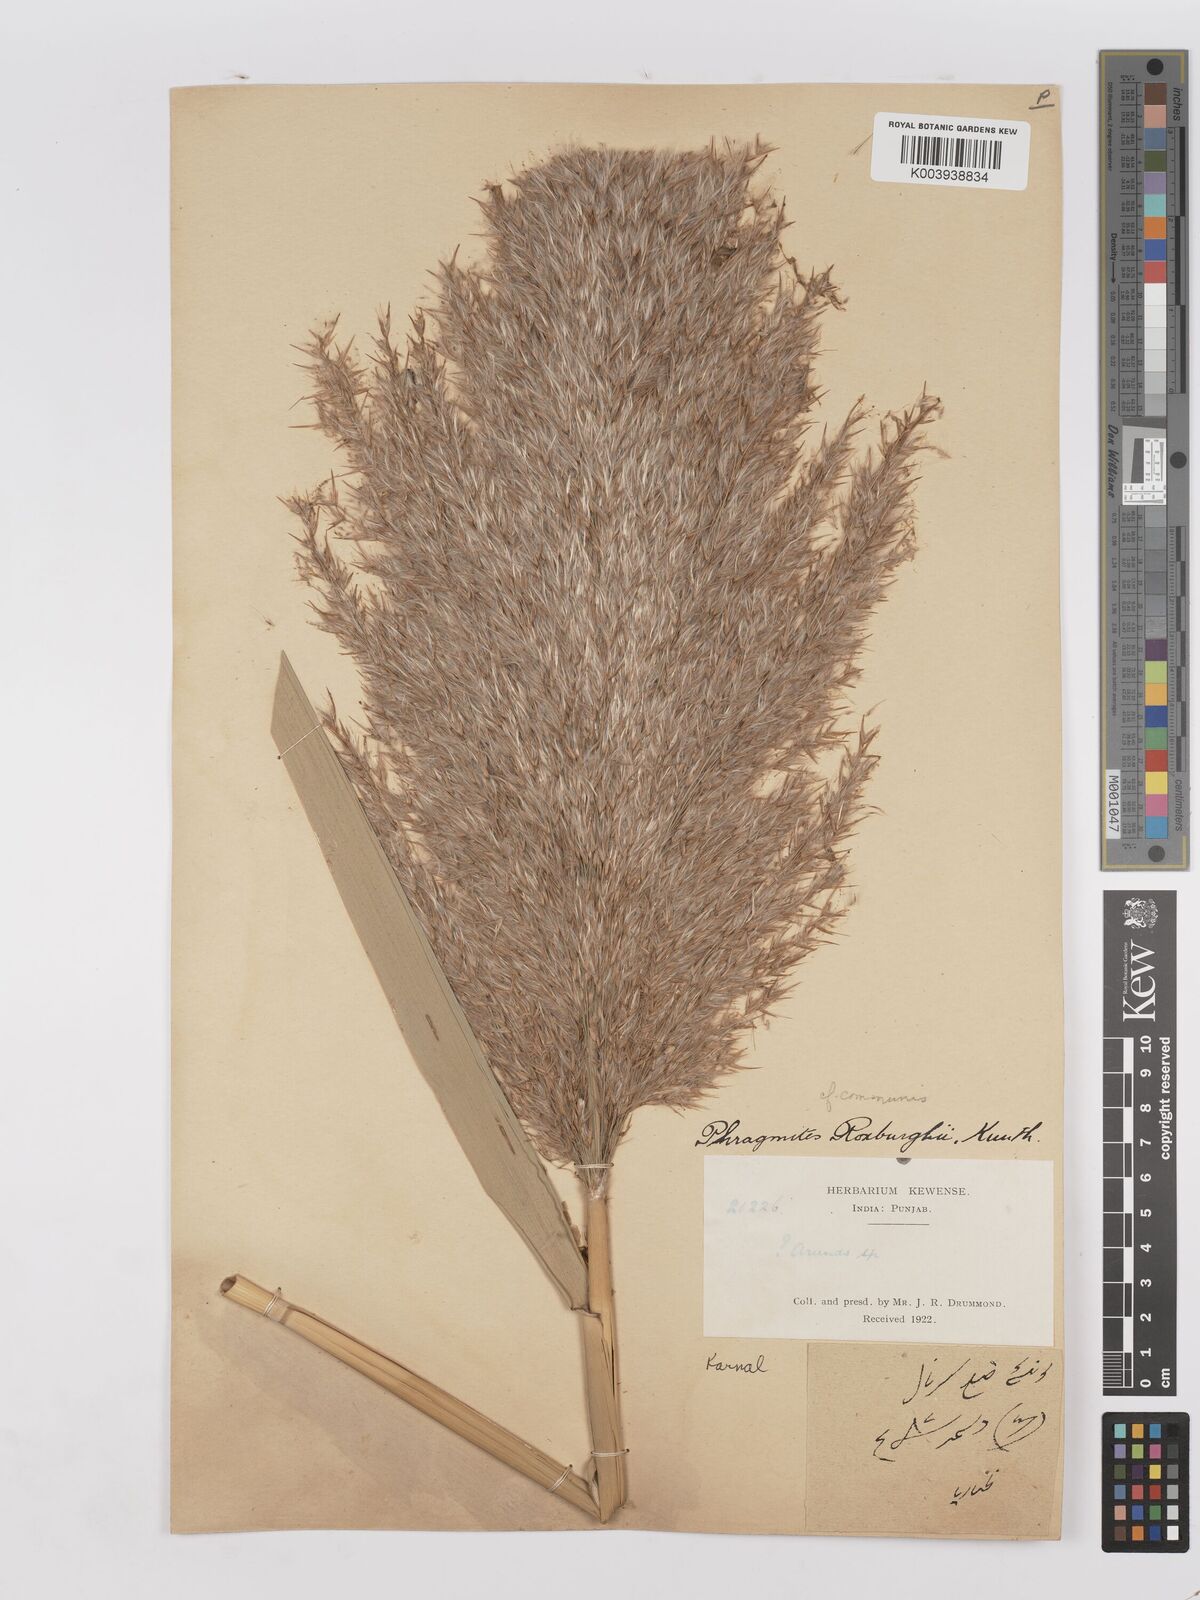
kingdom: Plantae
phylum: Tracheophyta
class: Liliopsida
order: Poales
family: Poaceae
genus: Phragmites
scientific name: Phragmites karka
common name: Tropical reed
